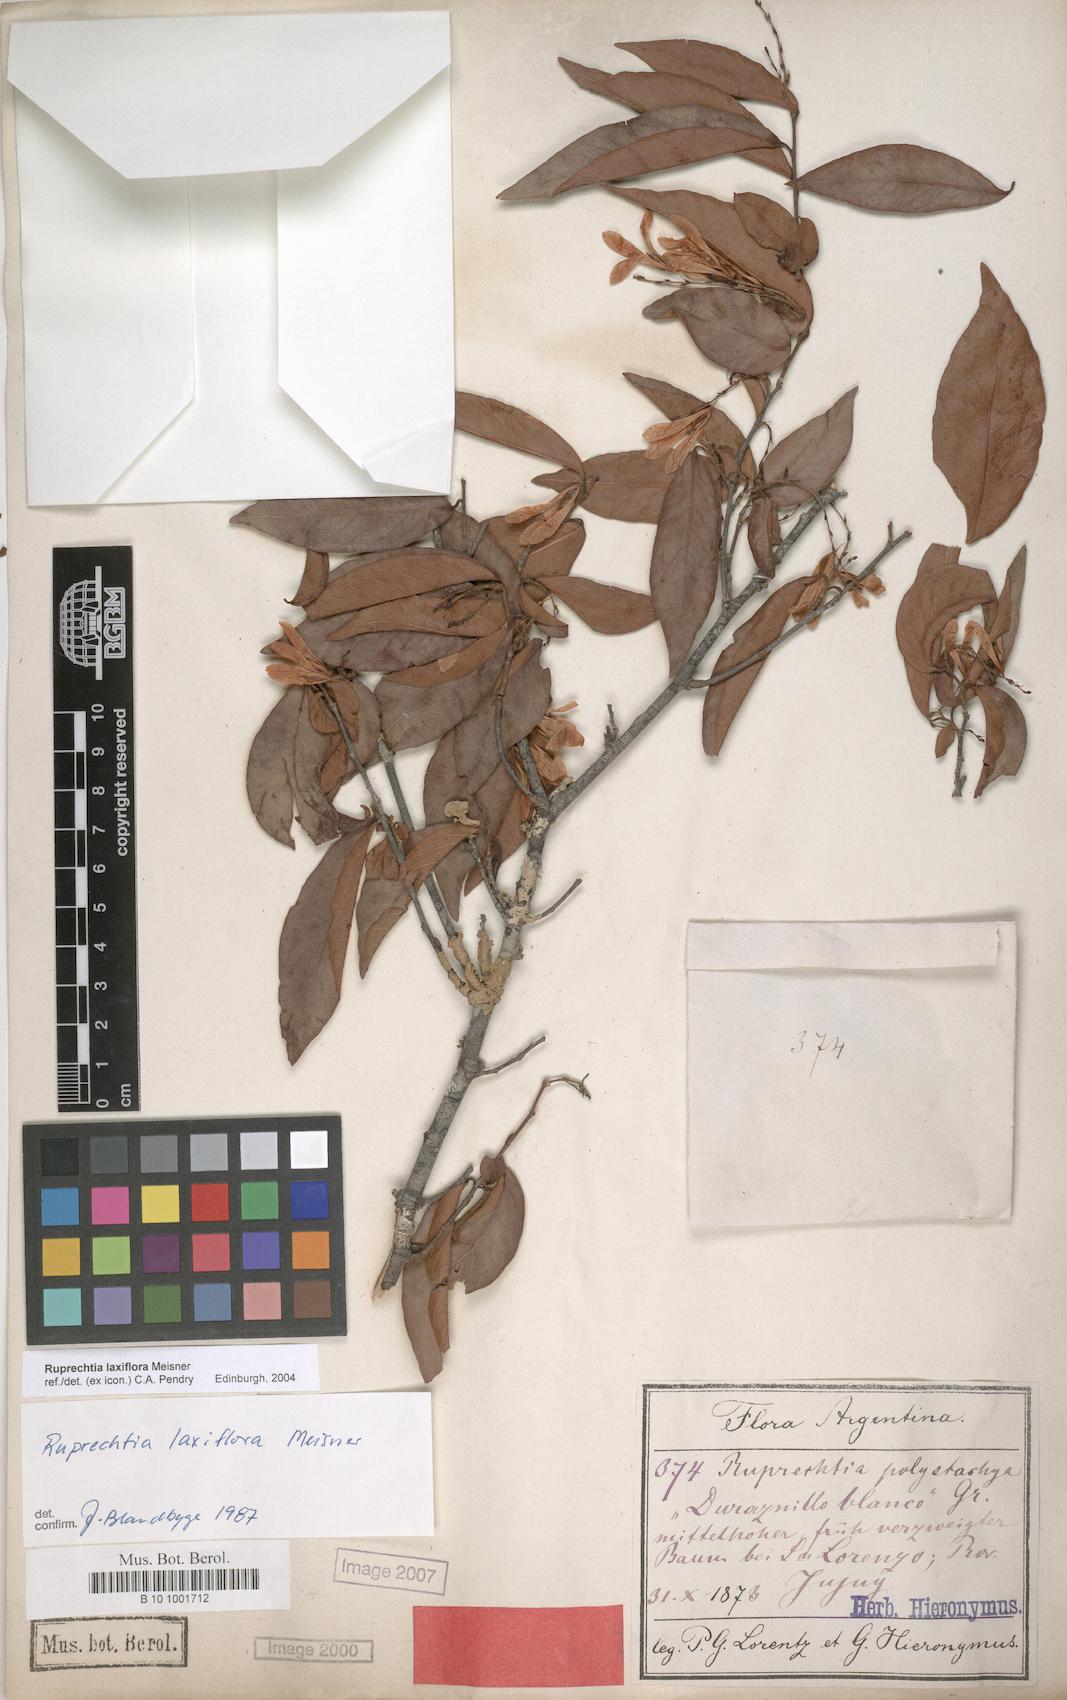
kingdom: Plantae
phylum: Tracheophyta
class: Magnoliopsida
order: Caryophyllales
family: Polygonaceae
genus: Ruprechtia
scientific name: Ruprechtia laxiflora
